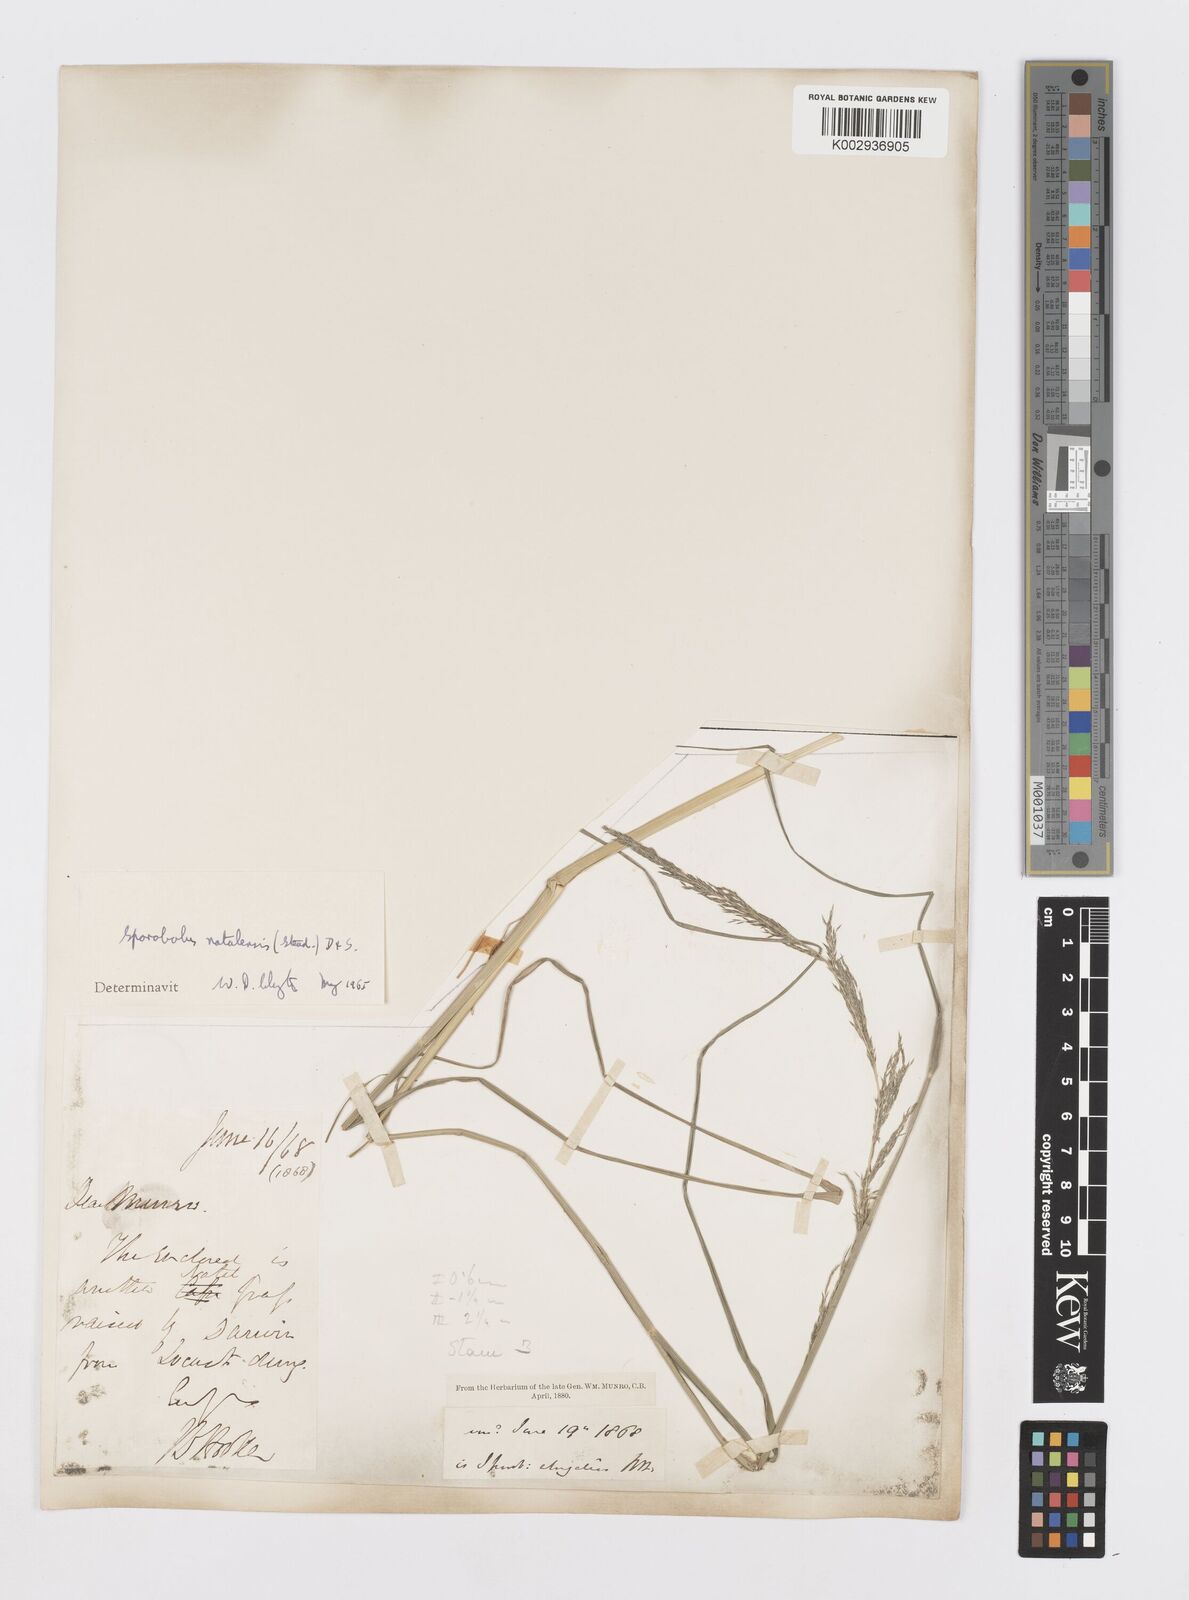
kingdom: Plantae
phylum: Tracheophyta
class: Liliopsida
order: Poales
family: Poaceae
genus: Sporobolus
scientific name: Sporobolus natalensis
